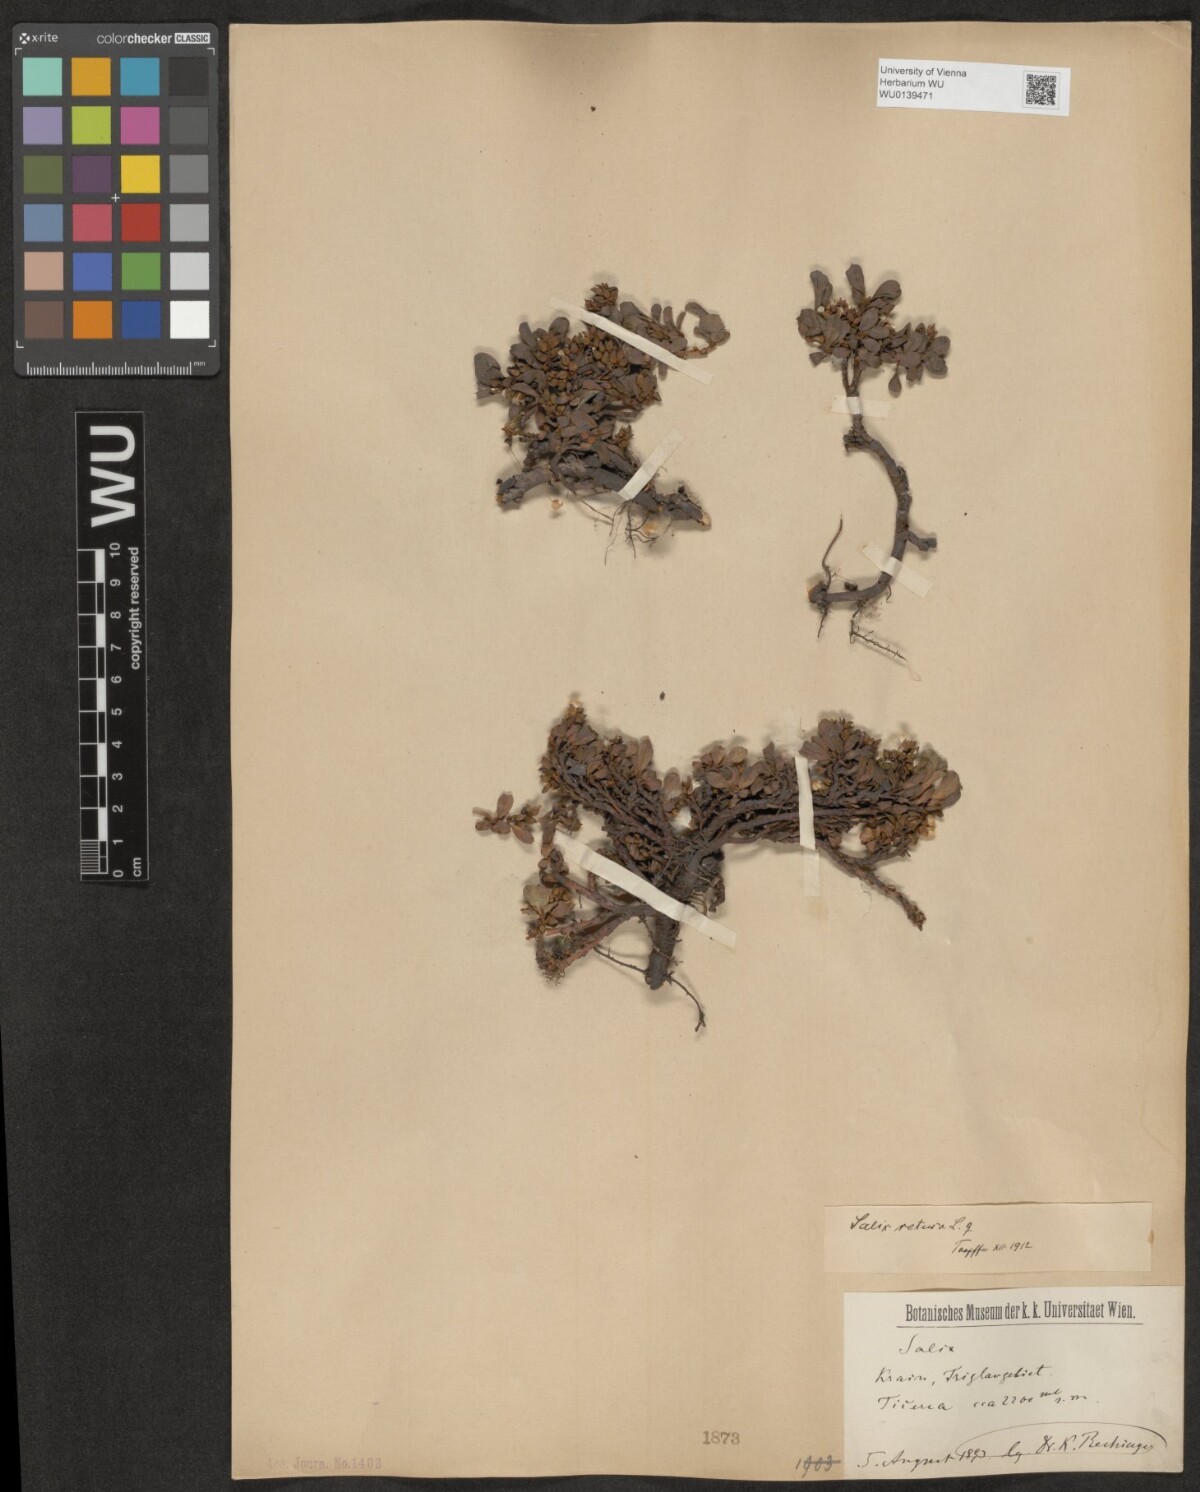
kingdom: Plantae
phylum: Tracheophyta
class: Magnoliopsida
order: Malpighiales
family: Salicaceae
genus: Salix
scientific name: Salix retusa
